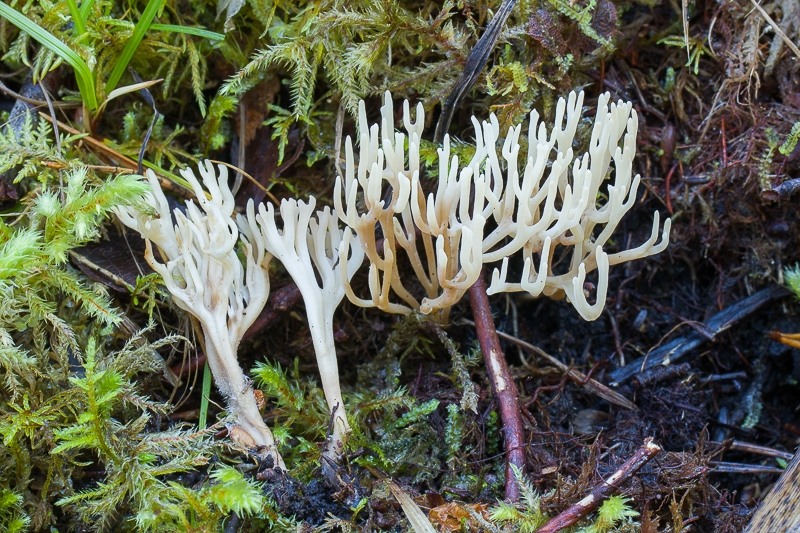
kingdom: Fungi
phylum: Basidiomycota
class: Agaricomycetes
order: Agaricales
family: Clavariaceae
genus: Ramariopsis
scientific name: Ramariopsis kunzei
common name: Ivory coral
